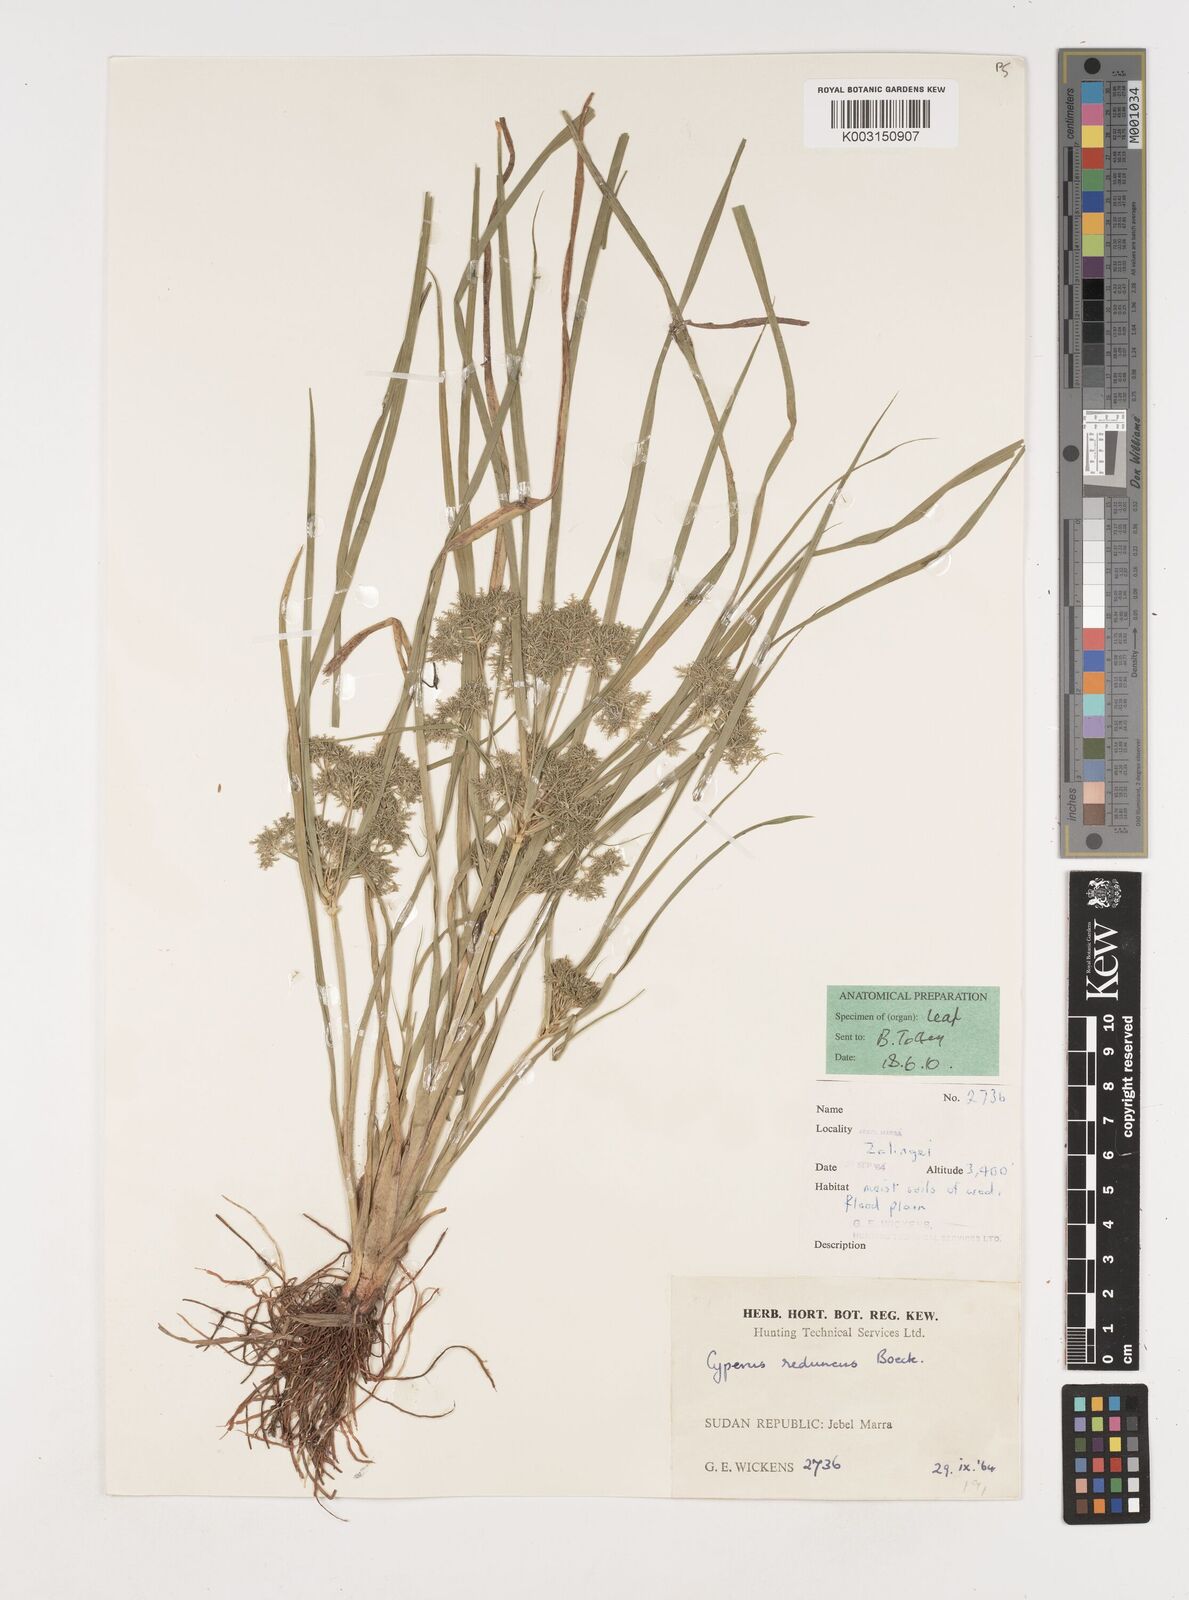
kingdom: Plantae
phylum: Tracheophyta
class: Liliopsida
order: Poales
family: Cyperaceae
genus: Cyperus
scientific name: Cyperus reduncus
